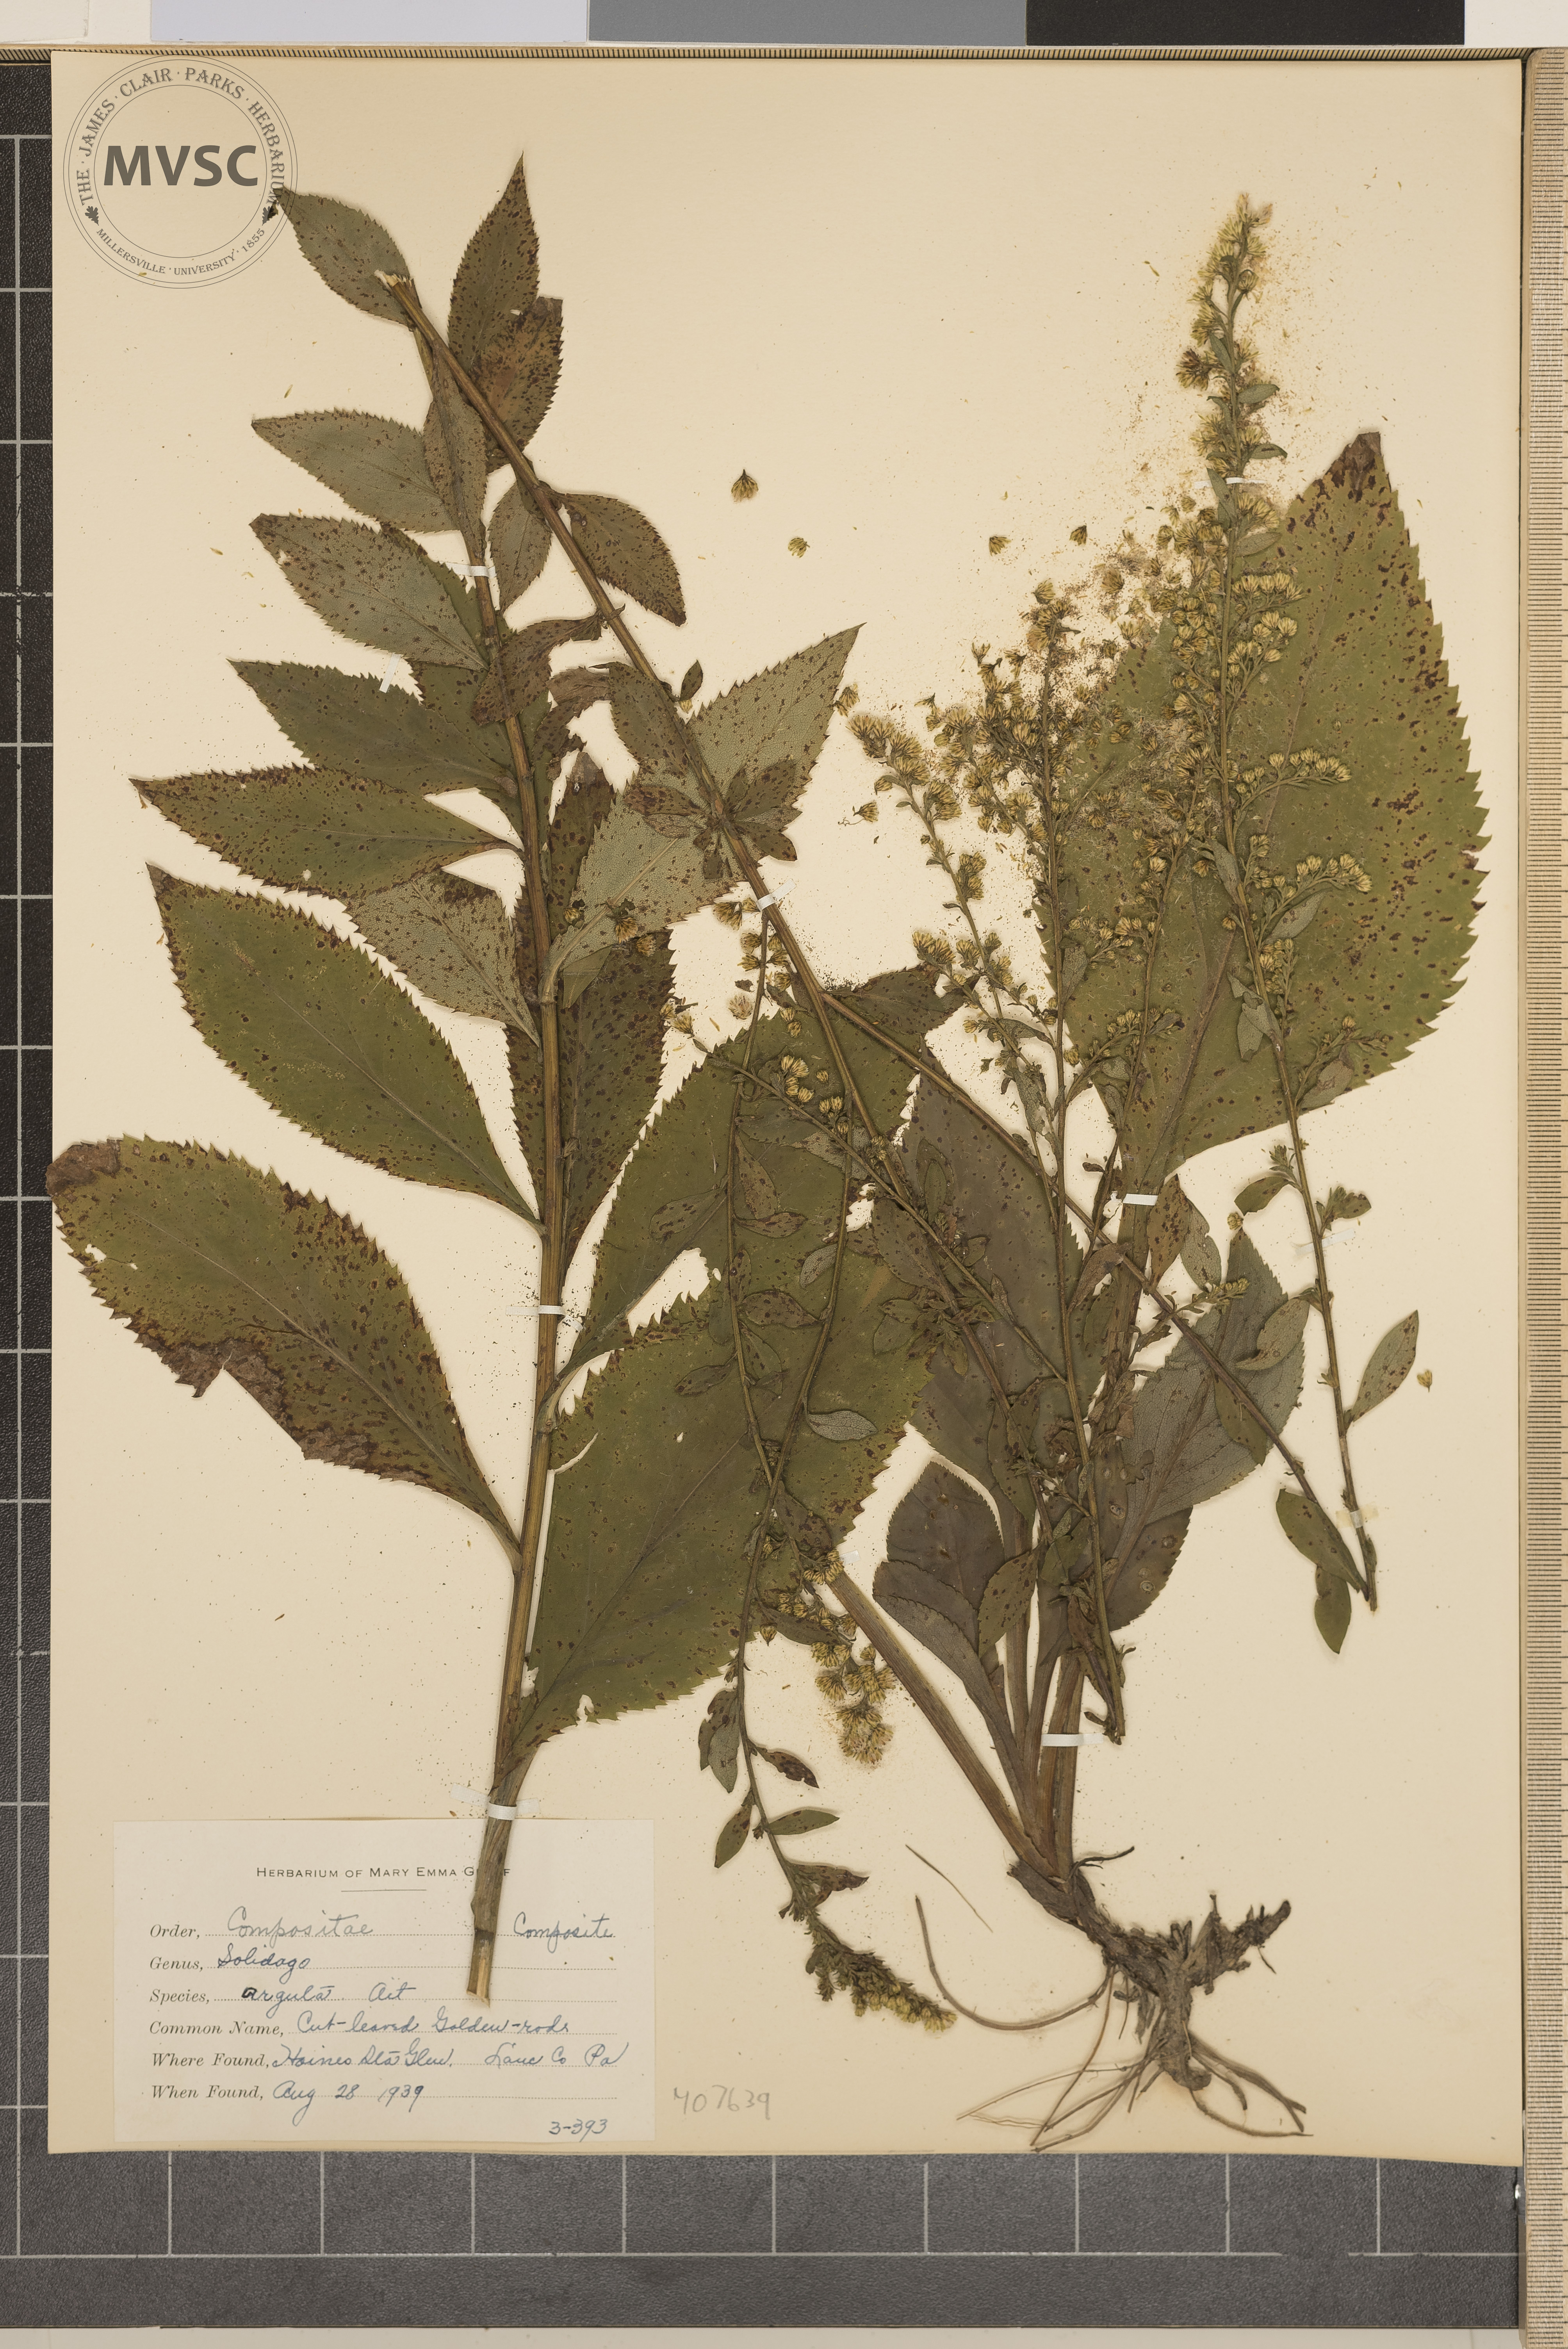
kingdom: Plantae
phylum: Tracheophyta
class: Magnoliopsida
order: Asterales
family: Asteraceae
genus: Solidago
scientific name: Solidago arguta
